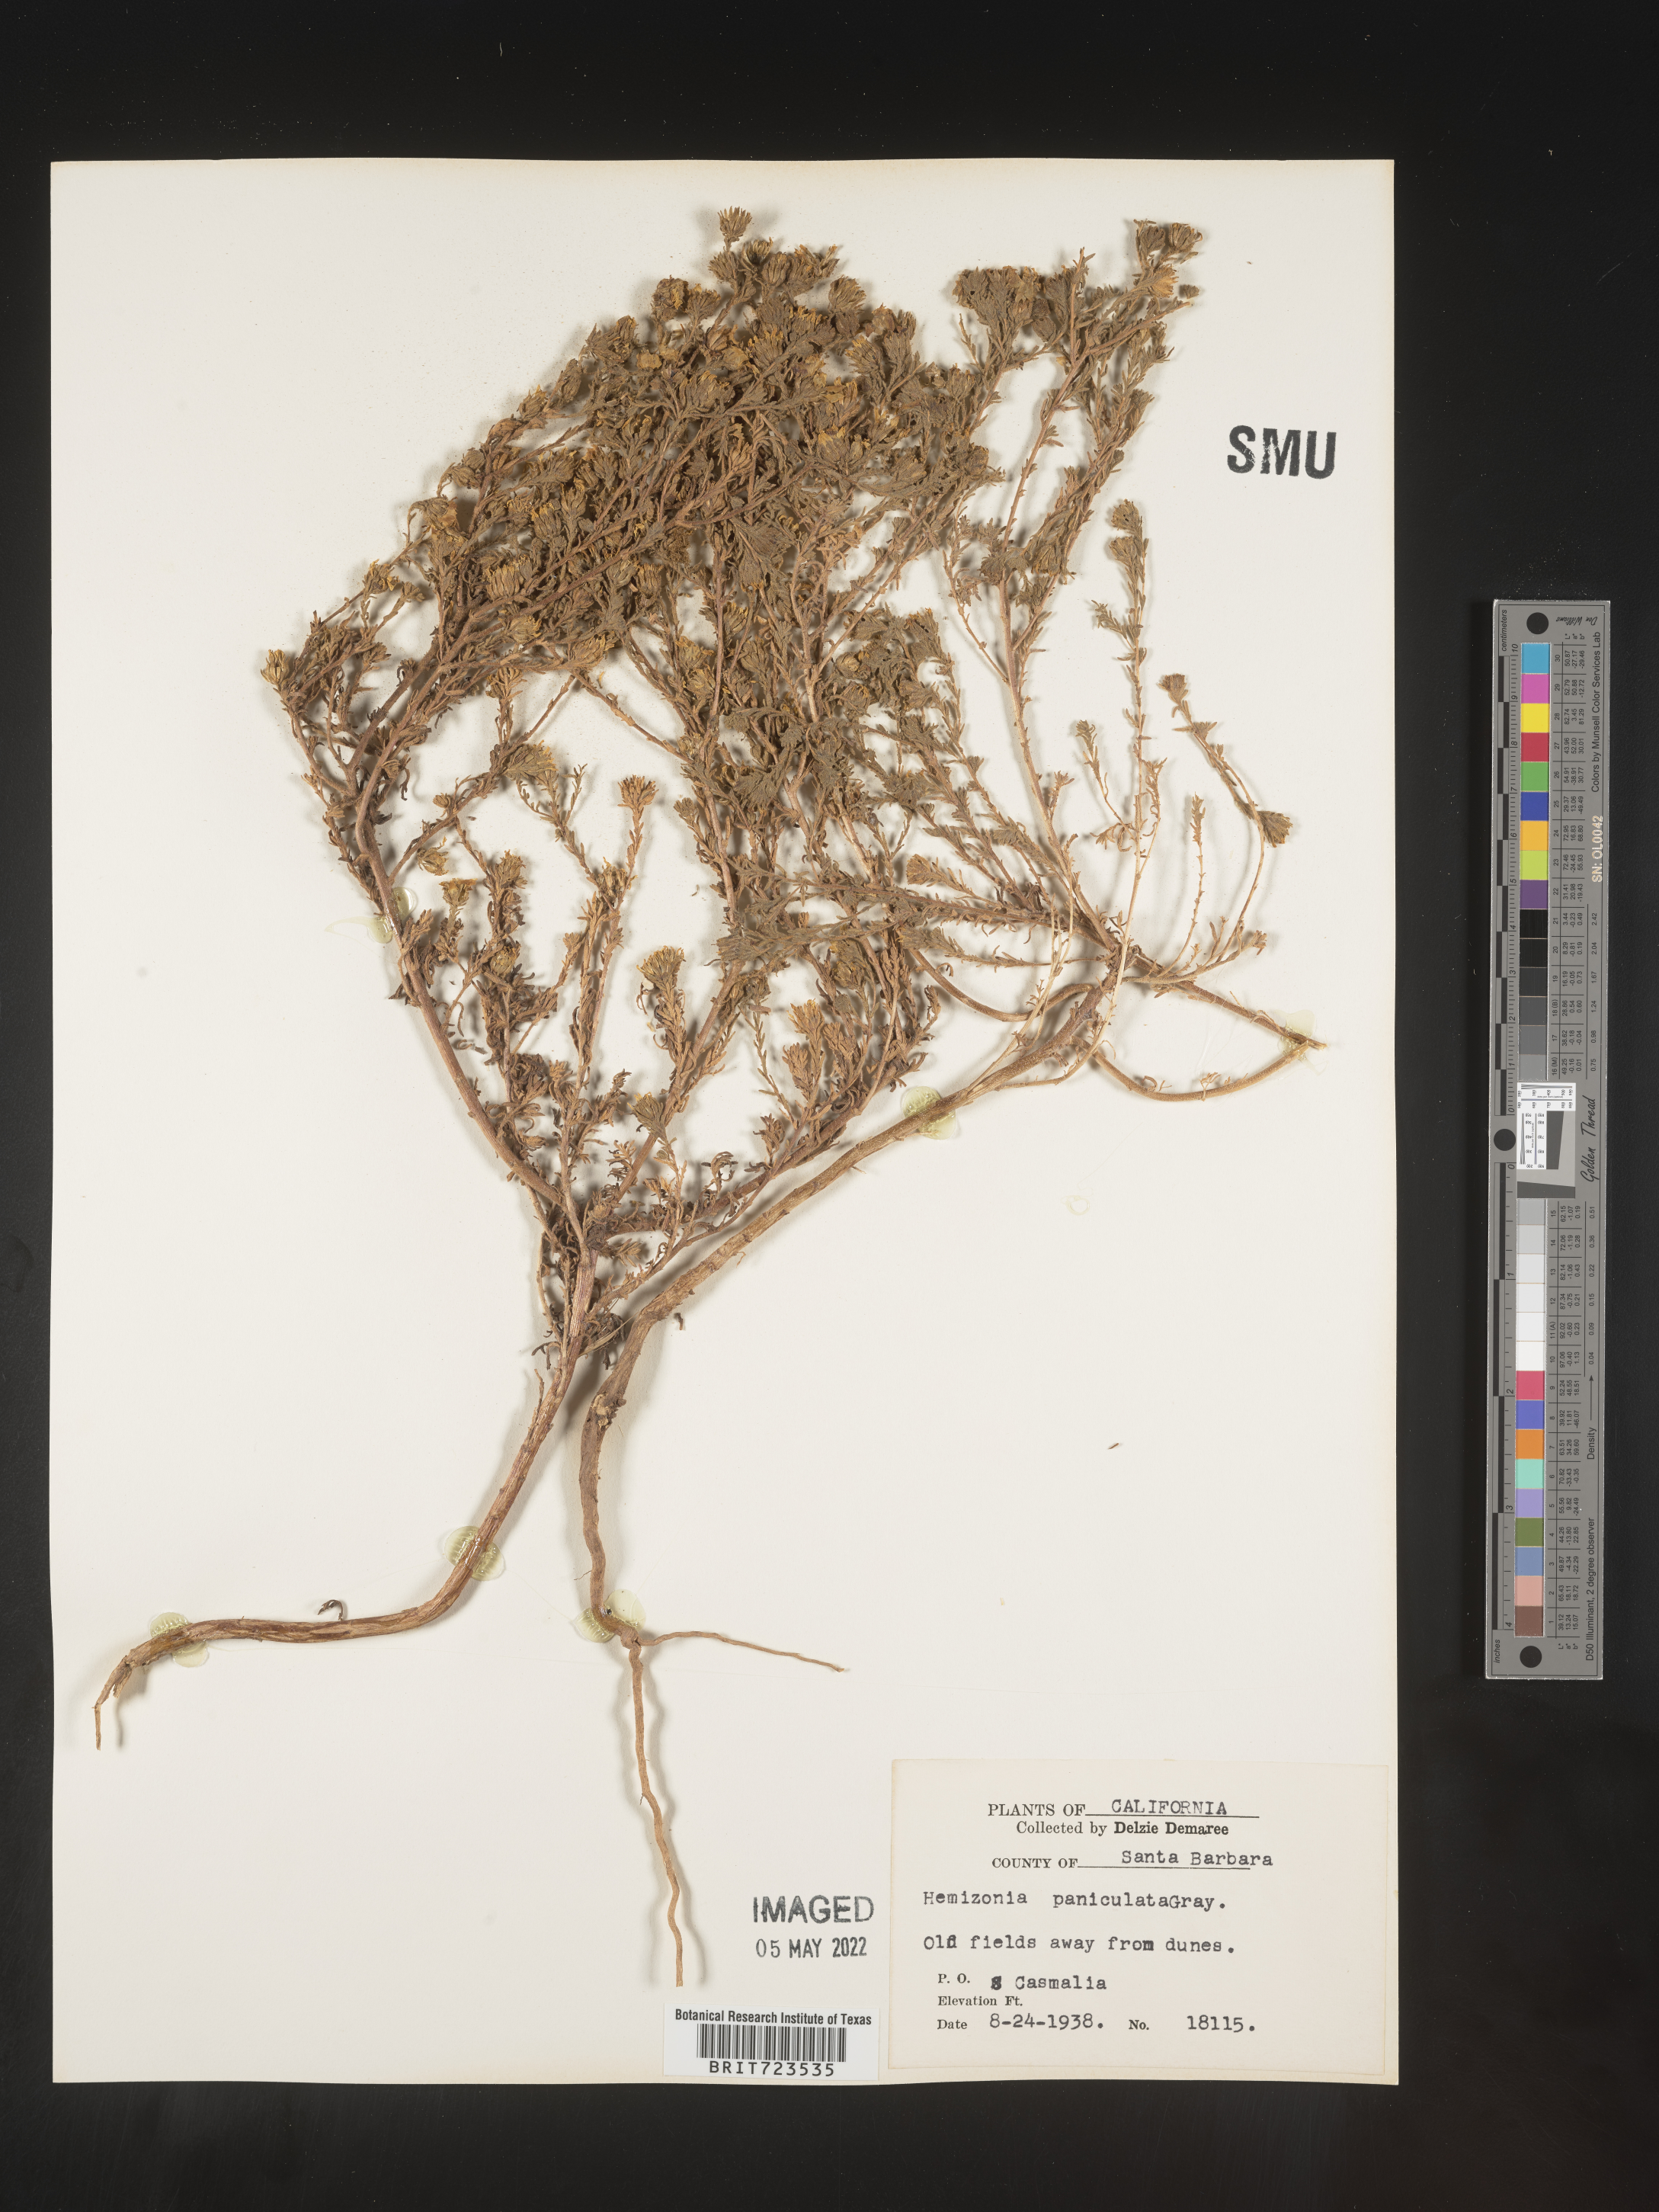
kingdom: Plantae
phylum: Tracheophyta
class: Magnoliopsida
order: Asterales
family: Asteraceae
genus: Hemizonia
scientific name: Hemizonia
